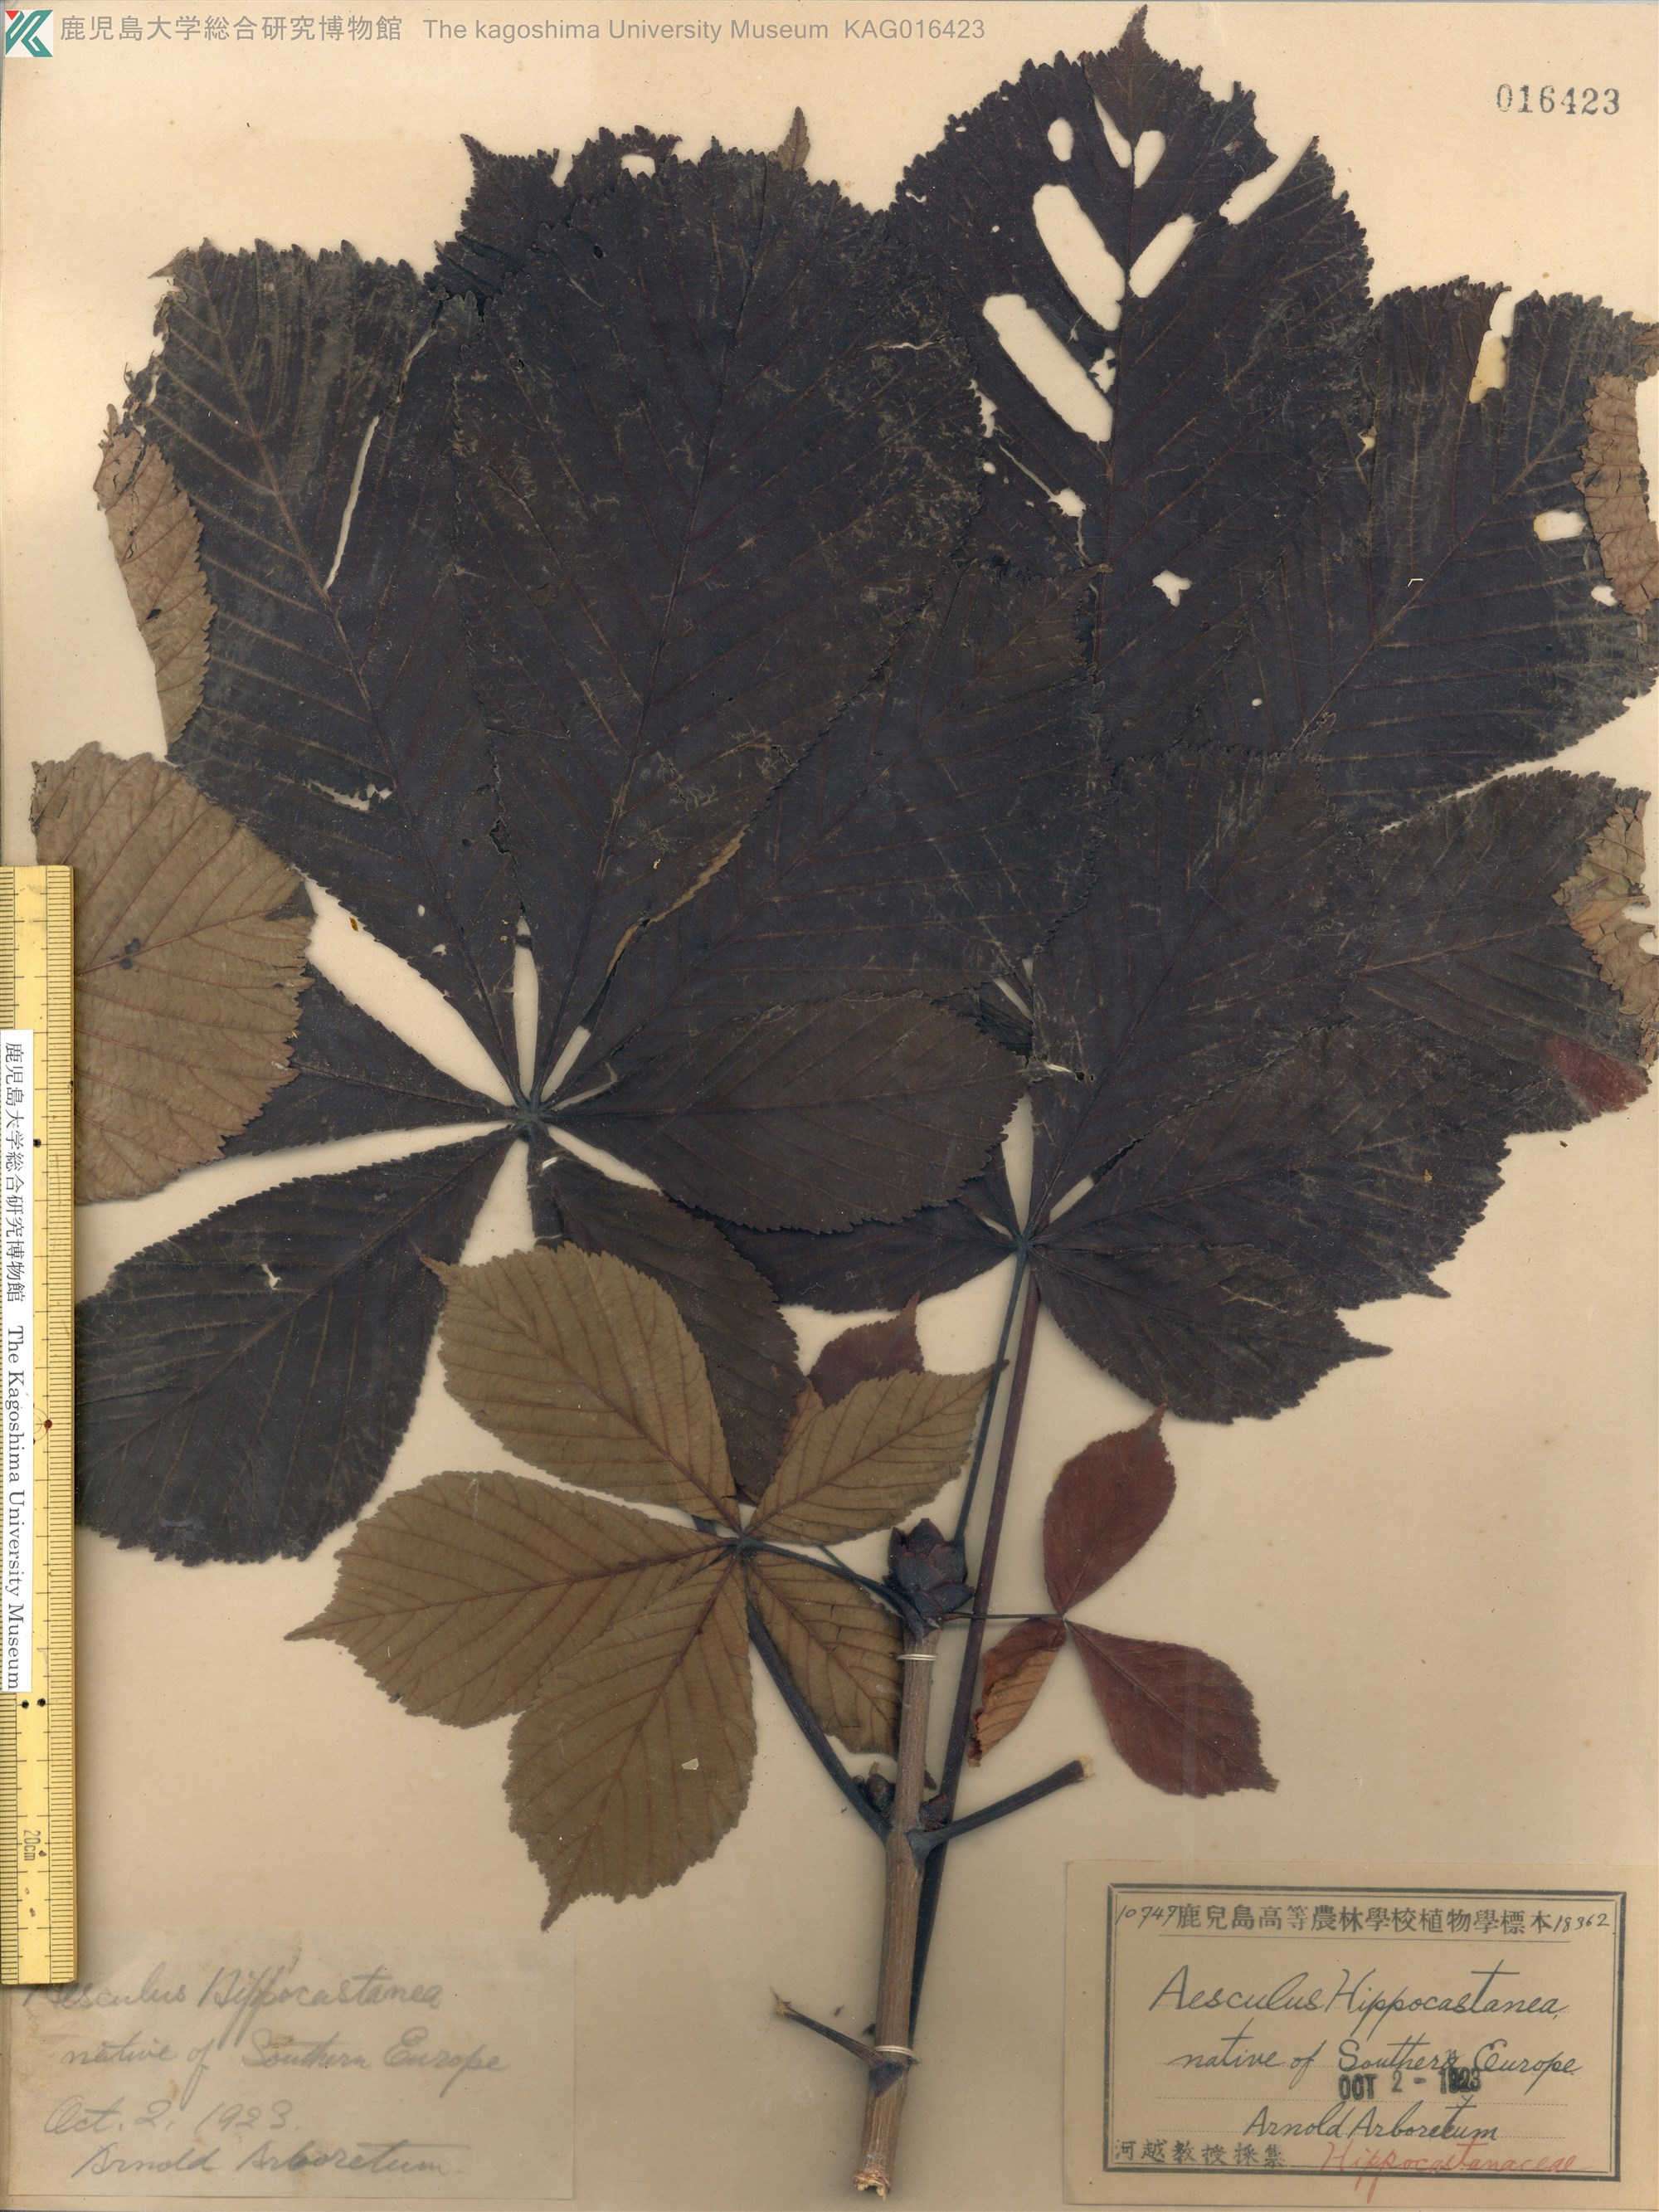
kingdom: Plantae
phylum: Tracheophyta
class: Magnoliopsida
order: Sapindales
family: Sapindaceae
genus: Aesculus
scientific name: Aesculus hippocastanum
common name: Horse-chestnut
